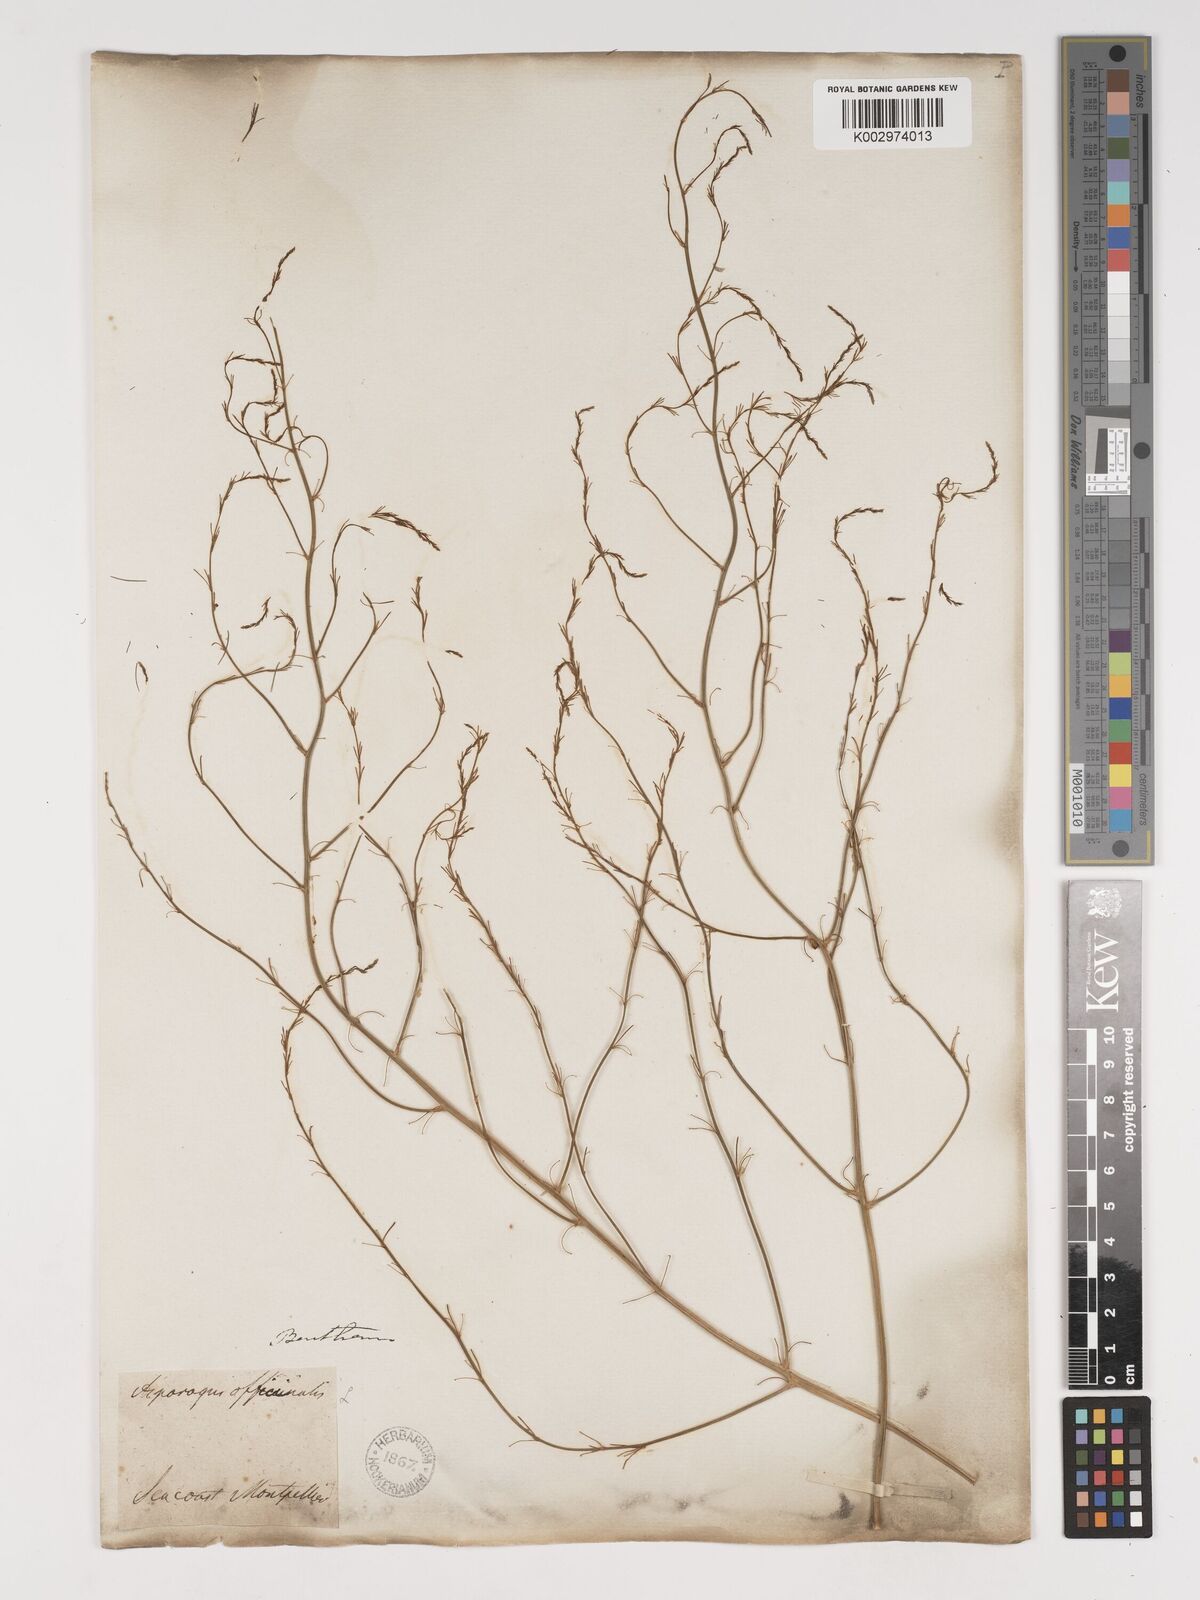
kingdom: Plantae
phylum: Tracheophyta
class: Liliopsida
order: Asparagales
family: Asparagaceae
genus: Asparagus
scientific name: Asparagus officinalis
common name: Garden asparagus
